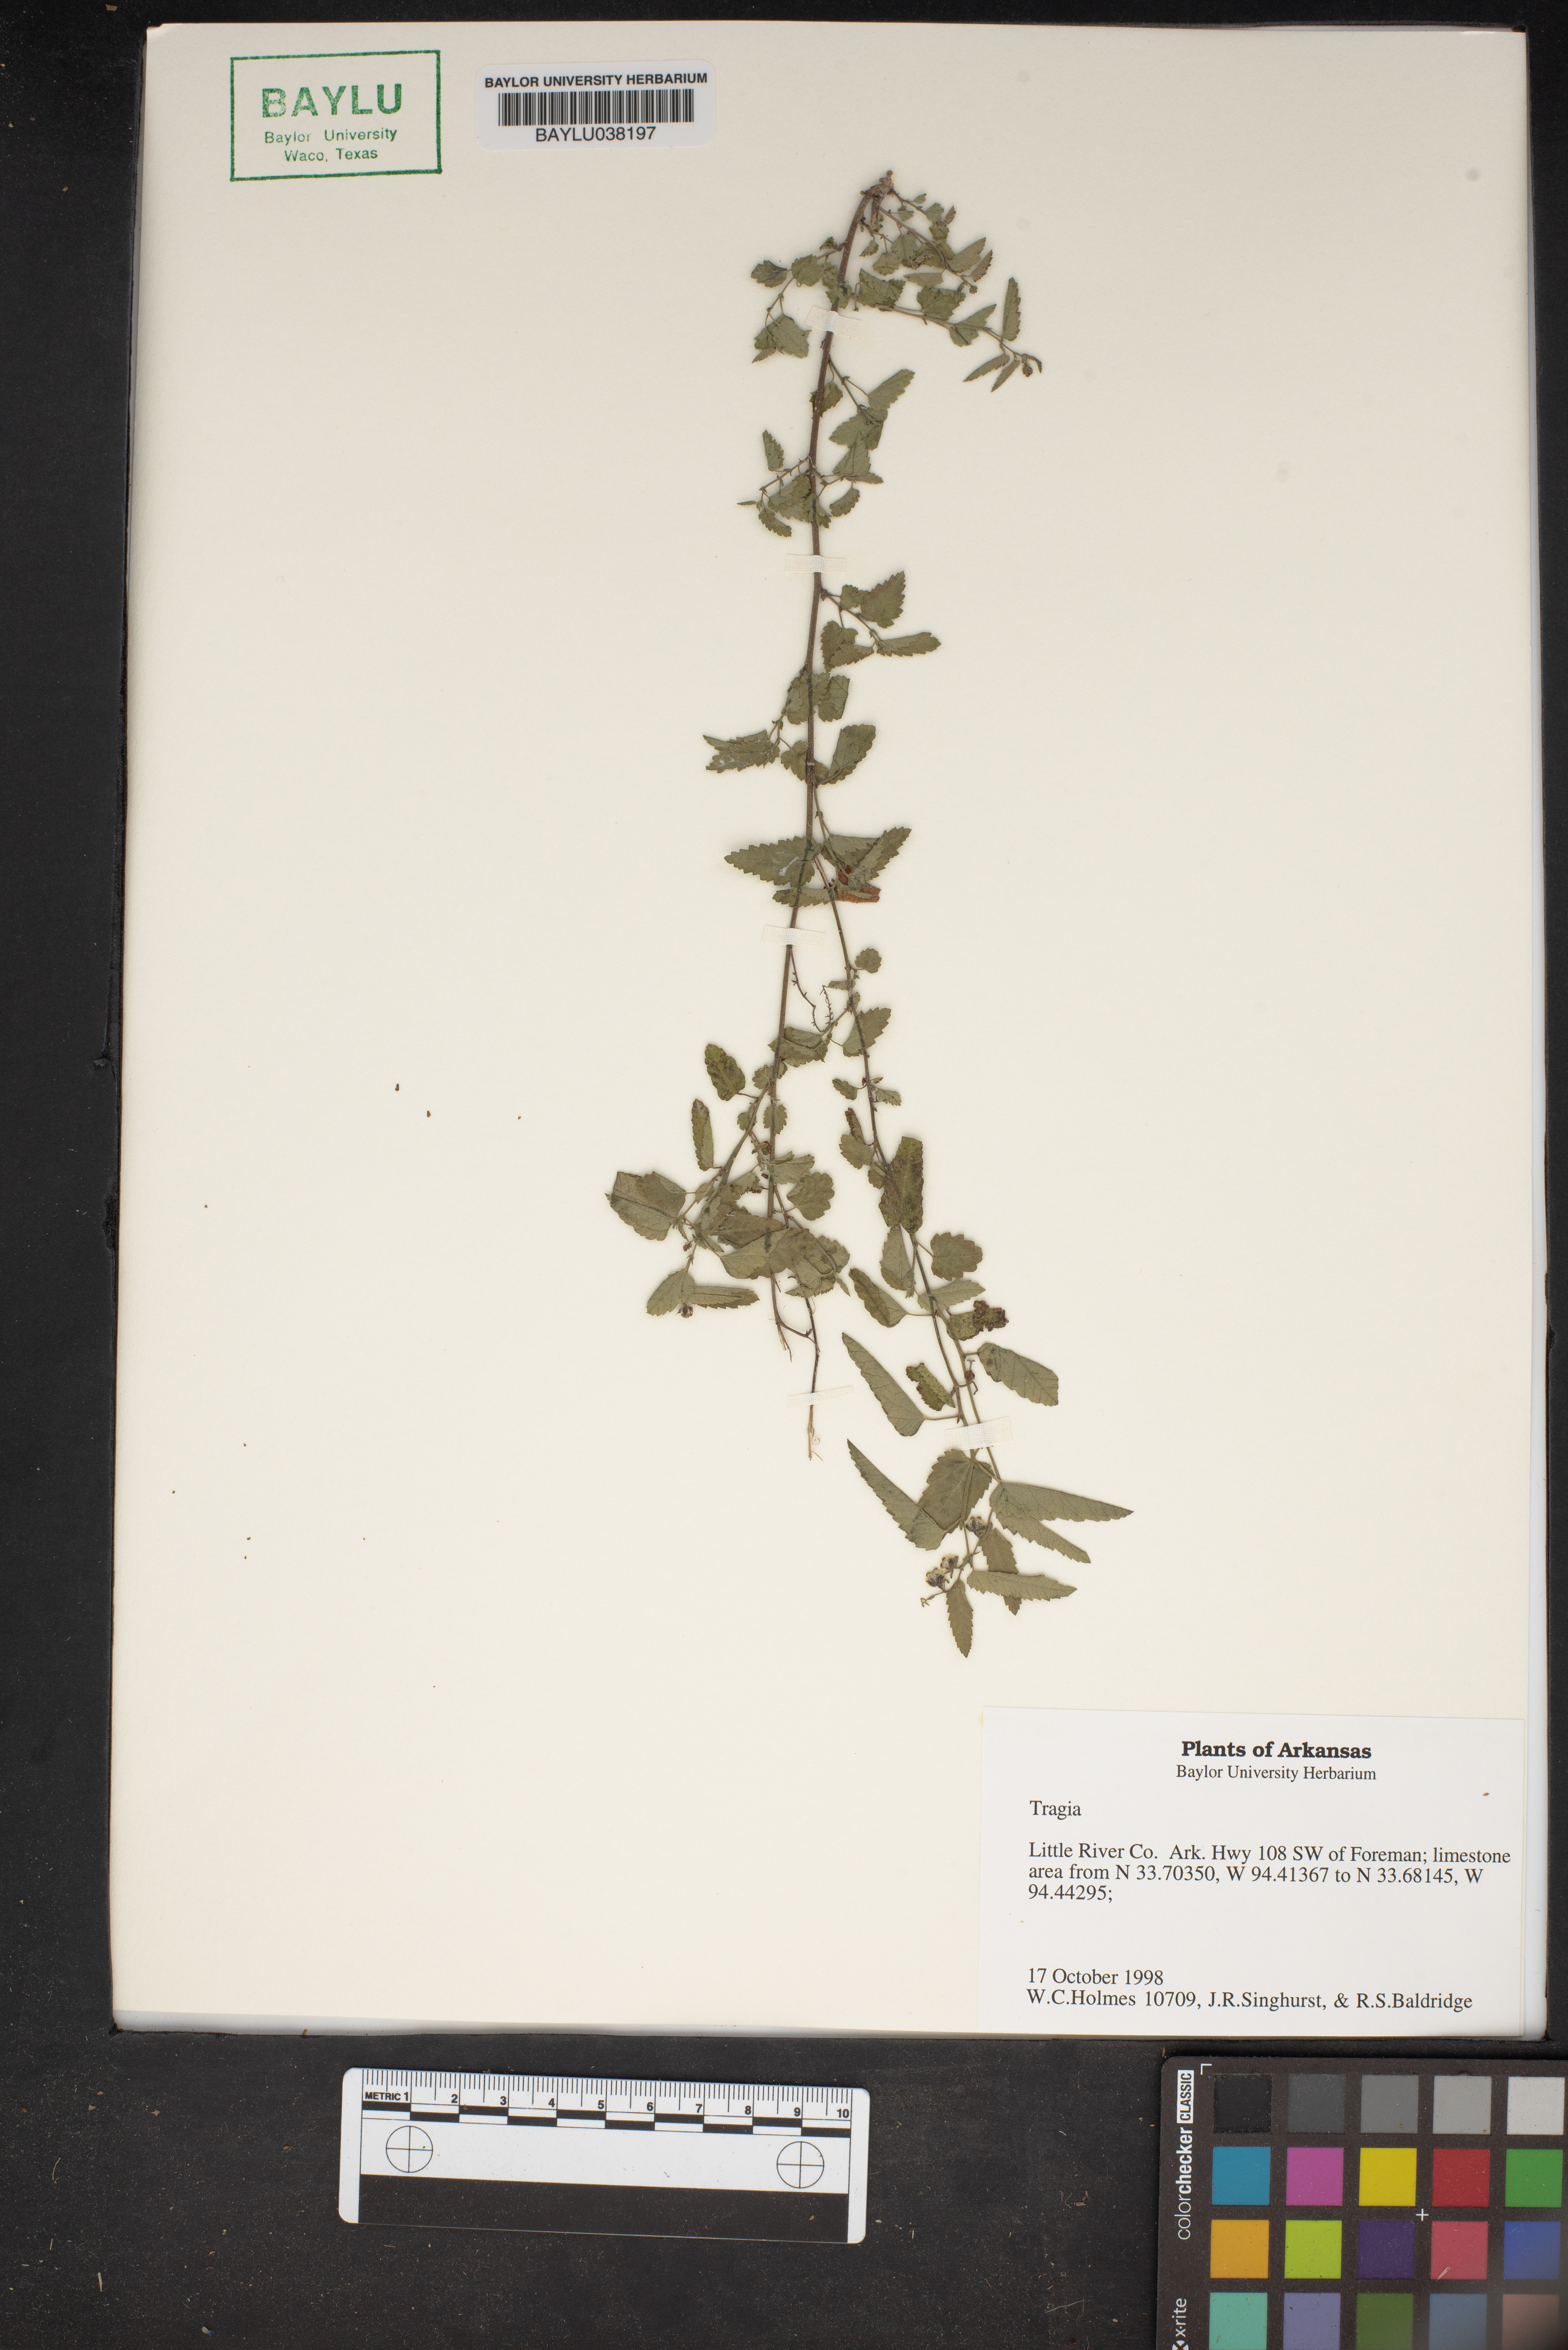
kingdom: Plantae
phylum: Tracheophyta
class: Magnoliopsida
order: Malpighiales
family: Euphorbiaceae
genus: Tragia
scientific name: Tragia
